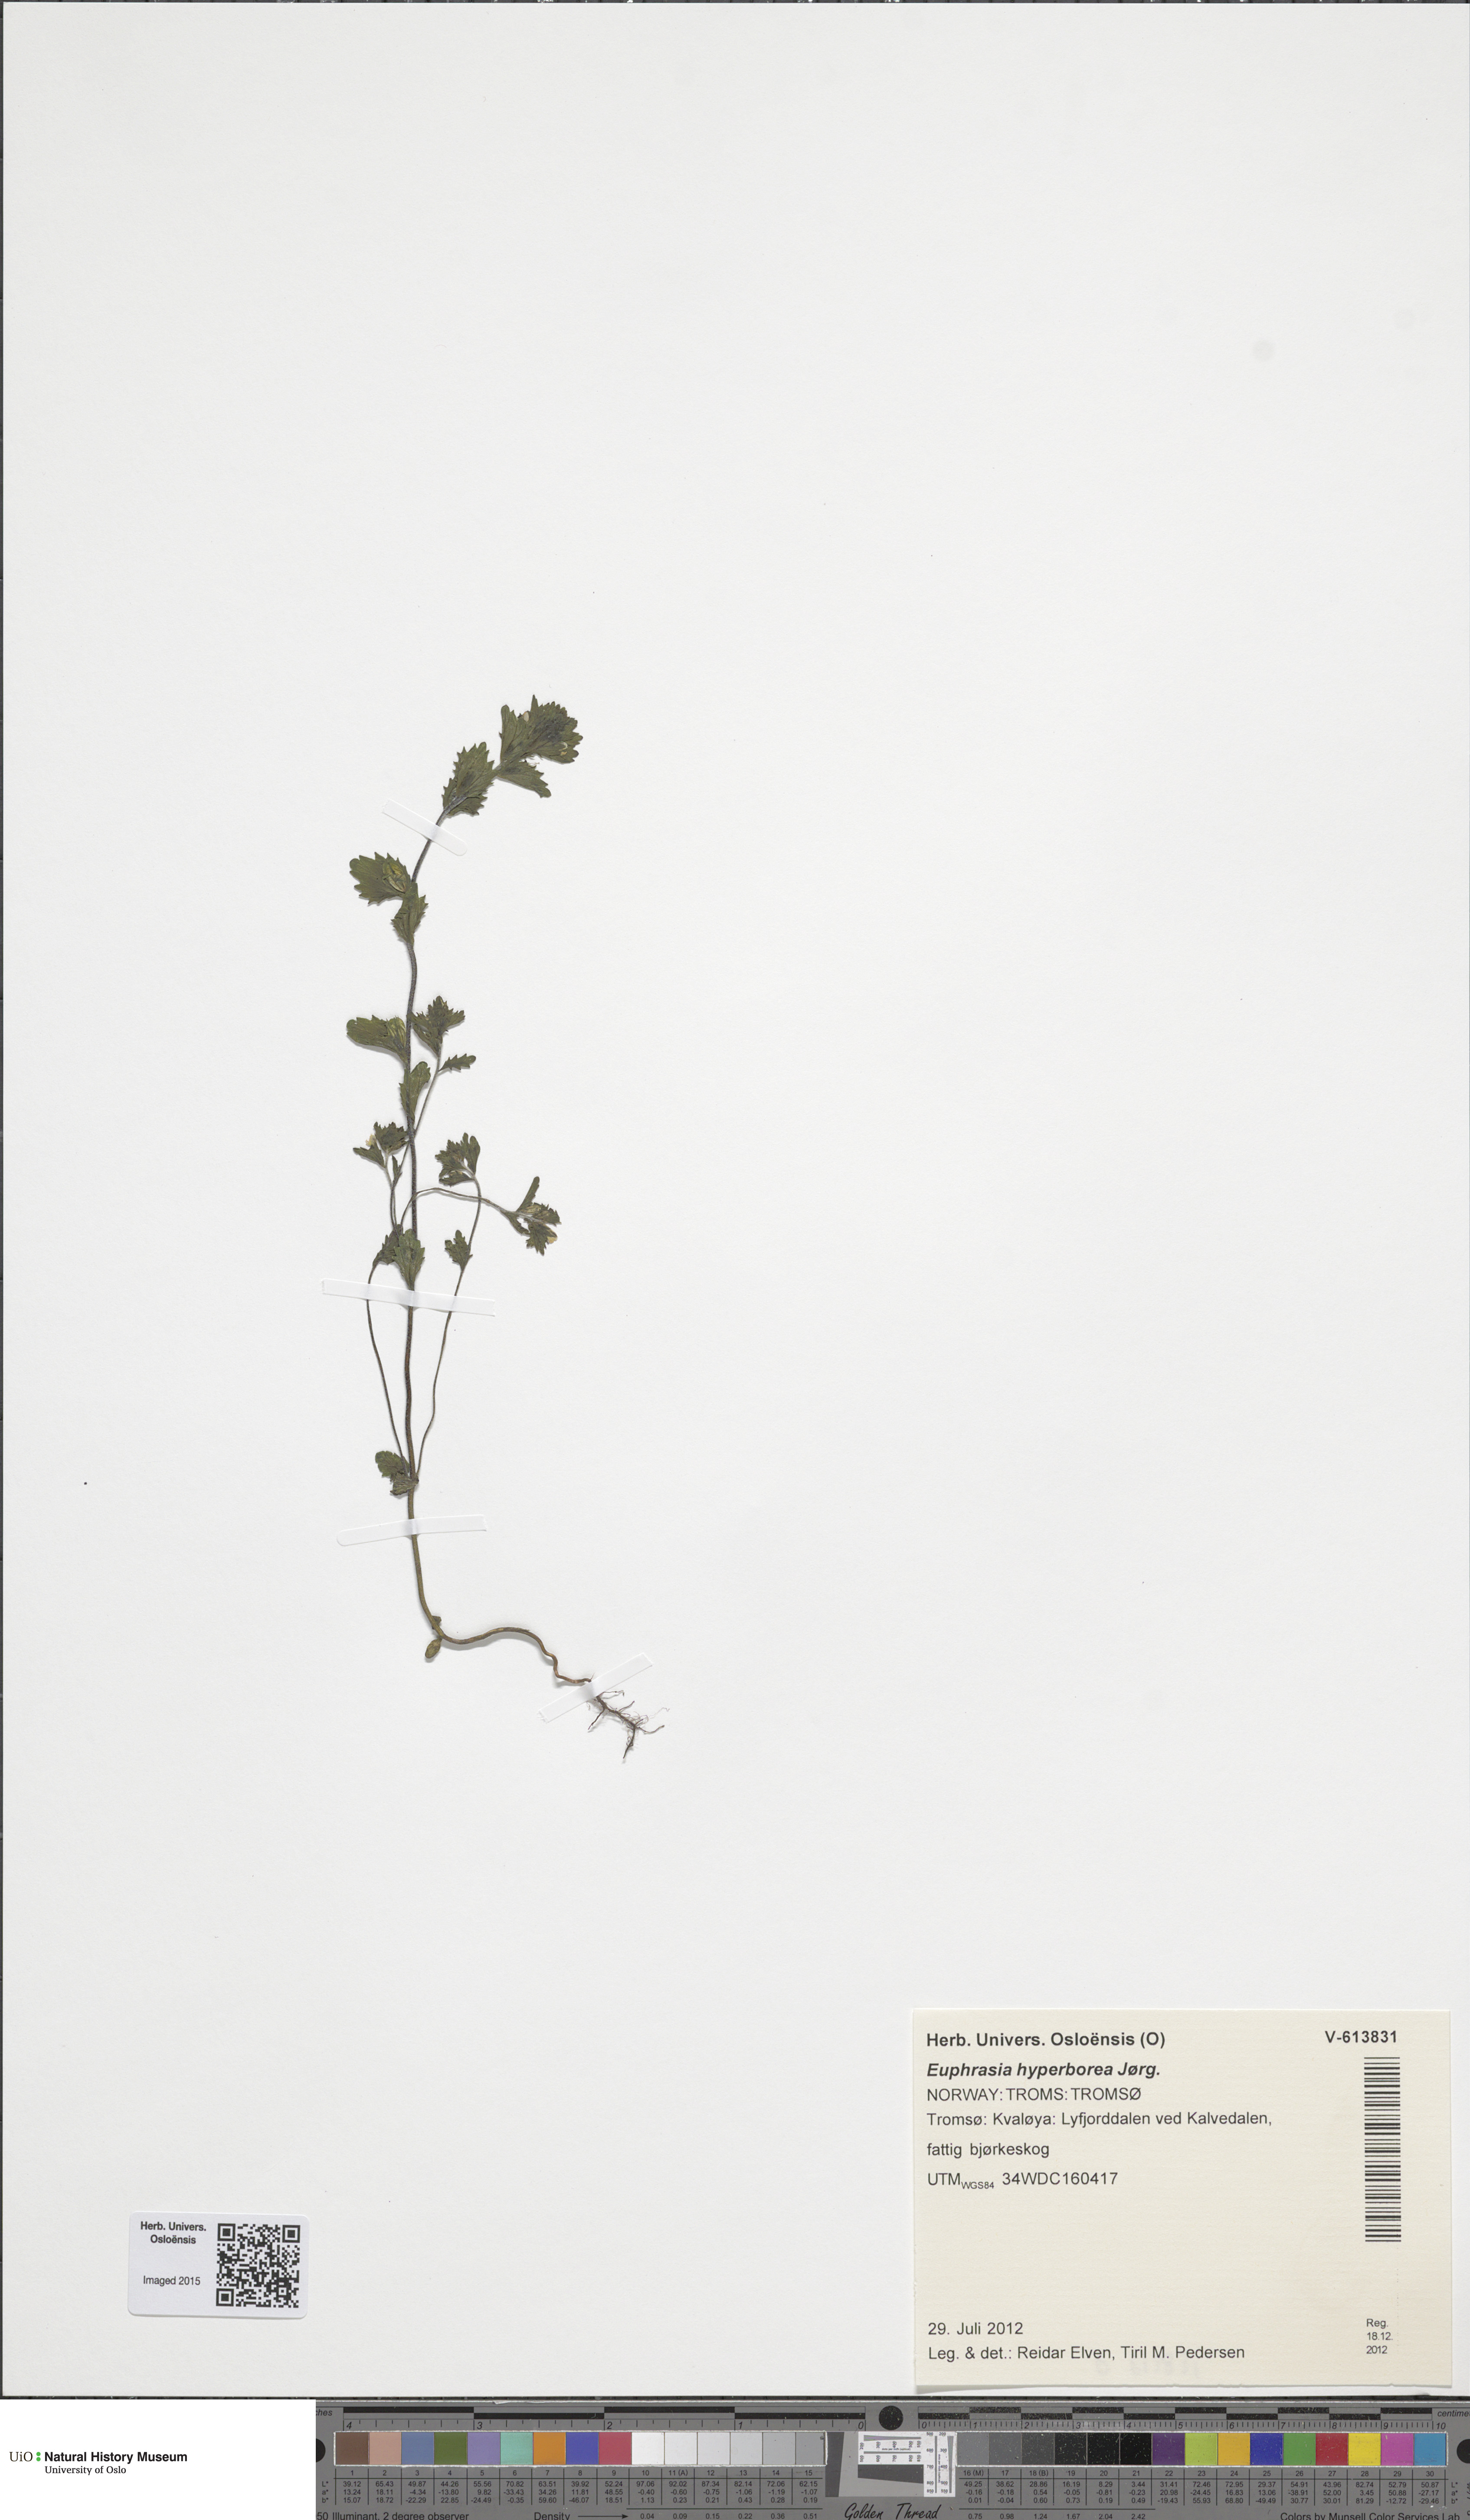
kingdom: Plantae
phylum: Tracheophyta
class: Magnoliopsida
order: Lamiales
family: Orobanchaceae
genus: Euphrasia
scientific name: Euphrasia hyperborea
